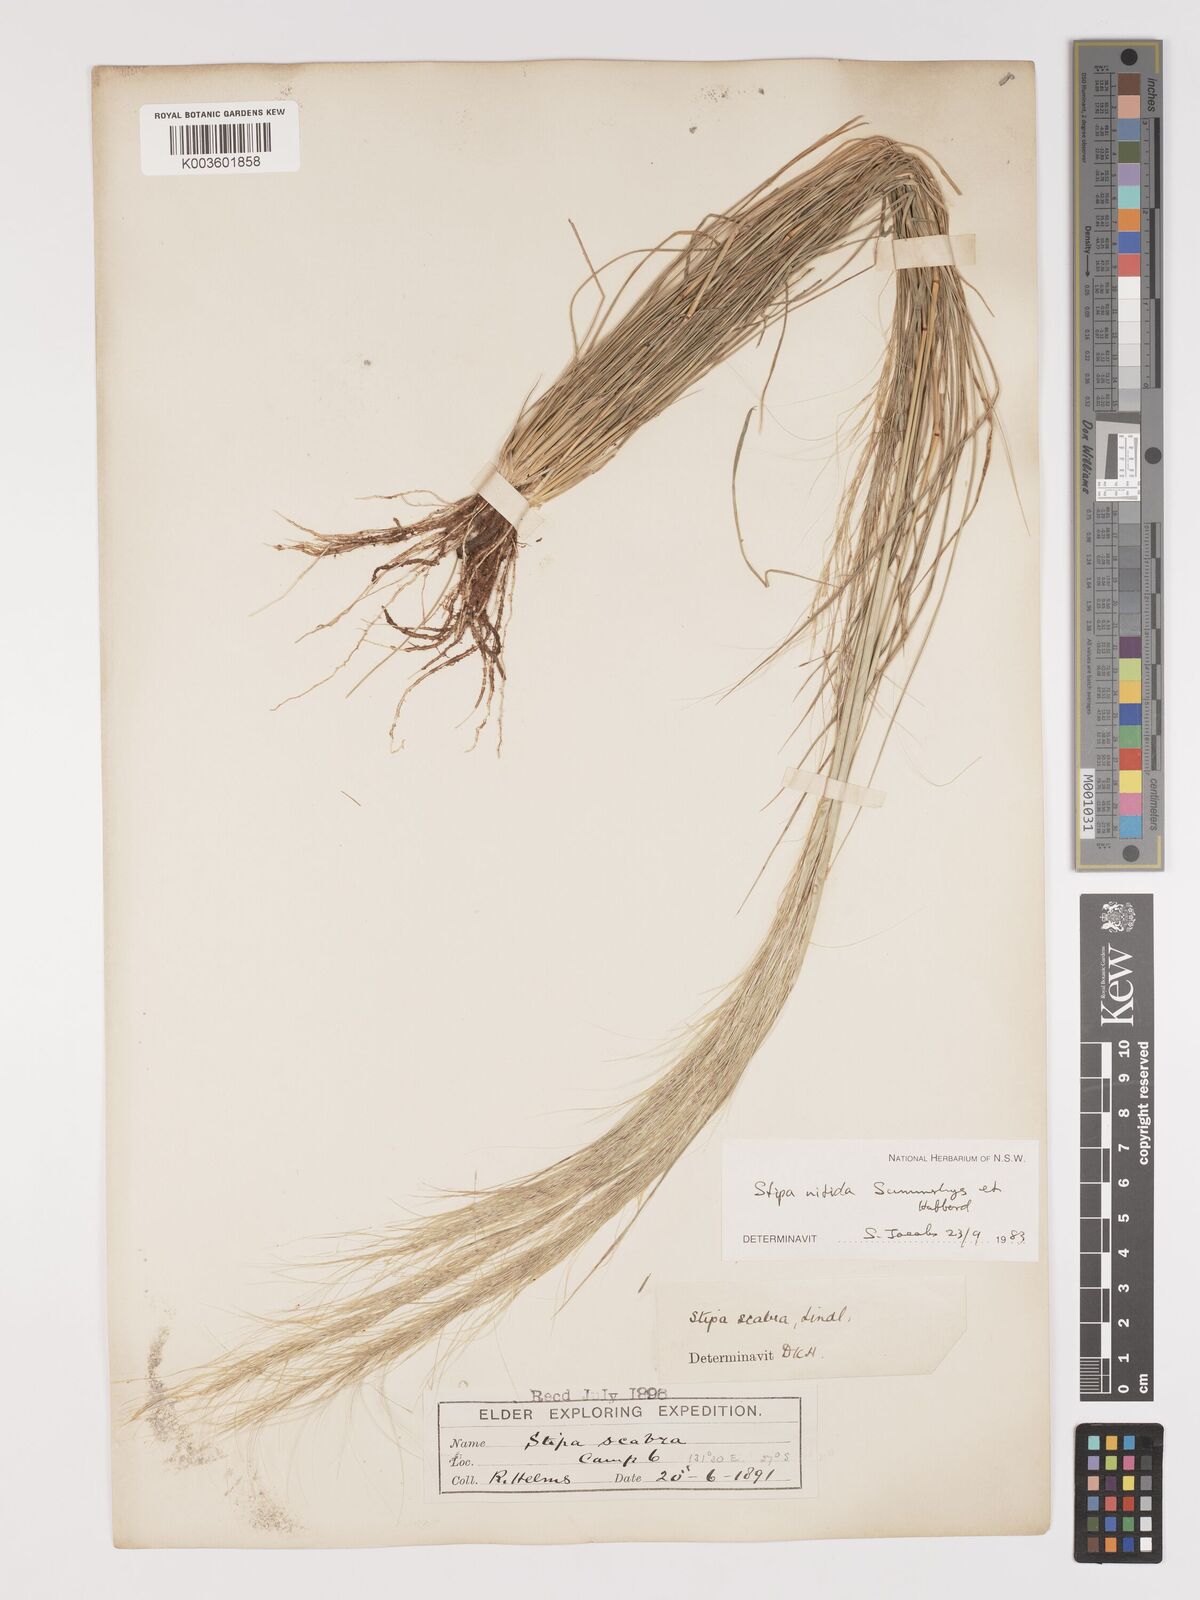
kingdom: Plantae
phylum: Tracheophyta
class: Liliopsida
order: Poales
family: Poaceae
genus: Austrostipa
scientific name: Austrostipa nitida
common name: Balcarra grass
